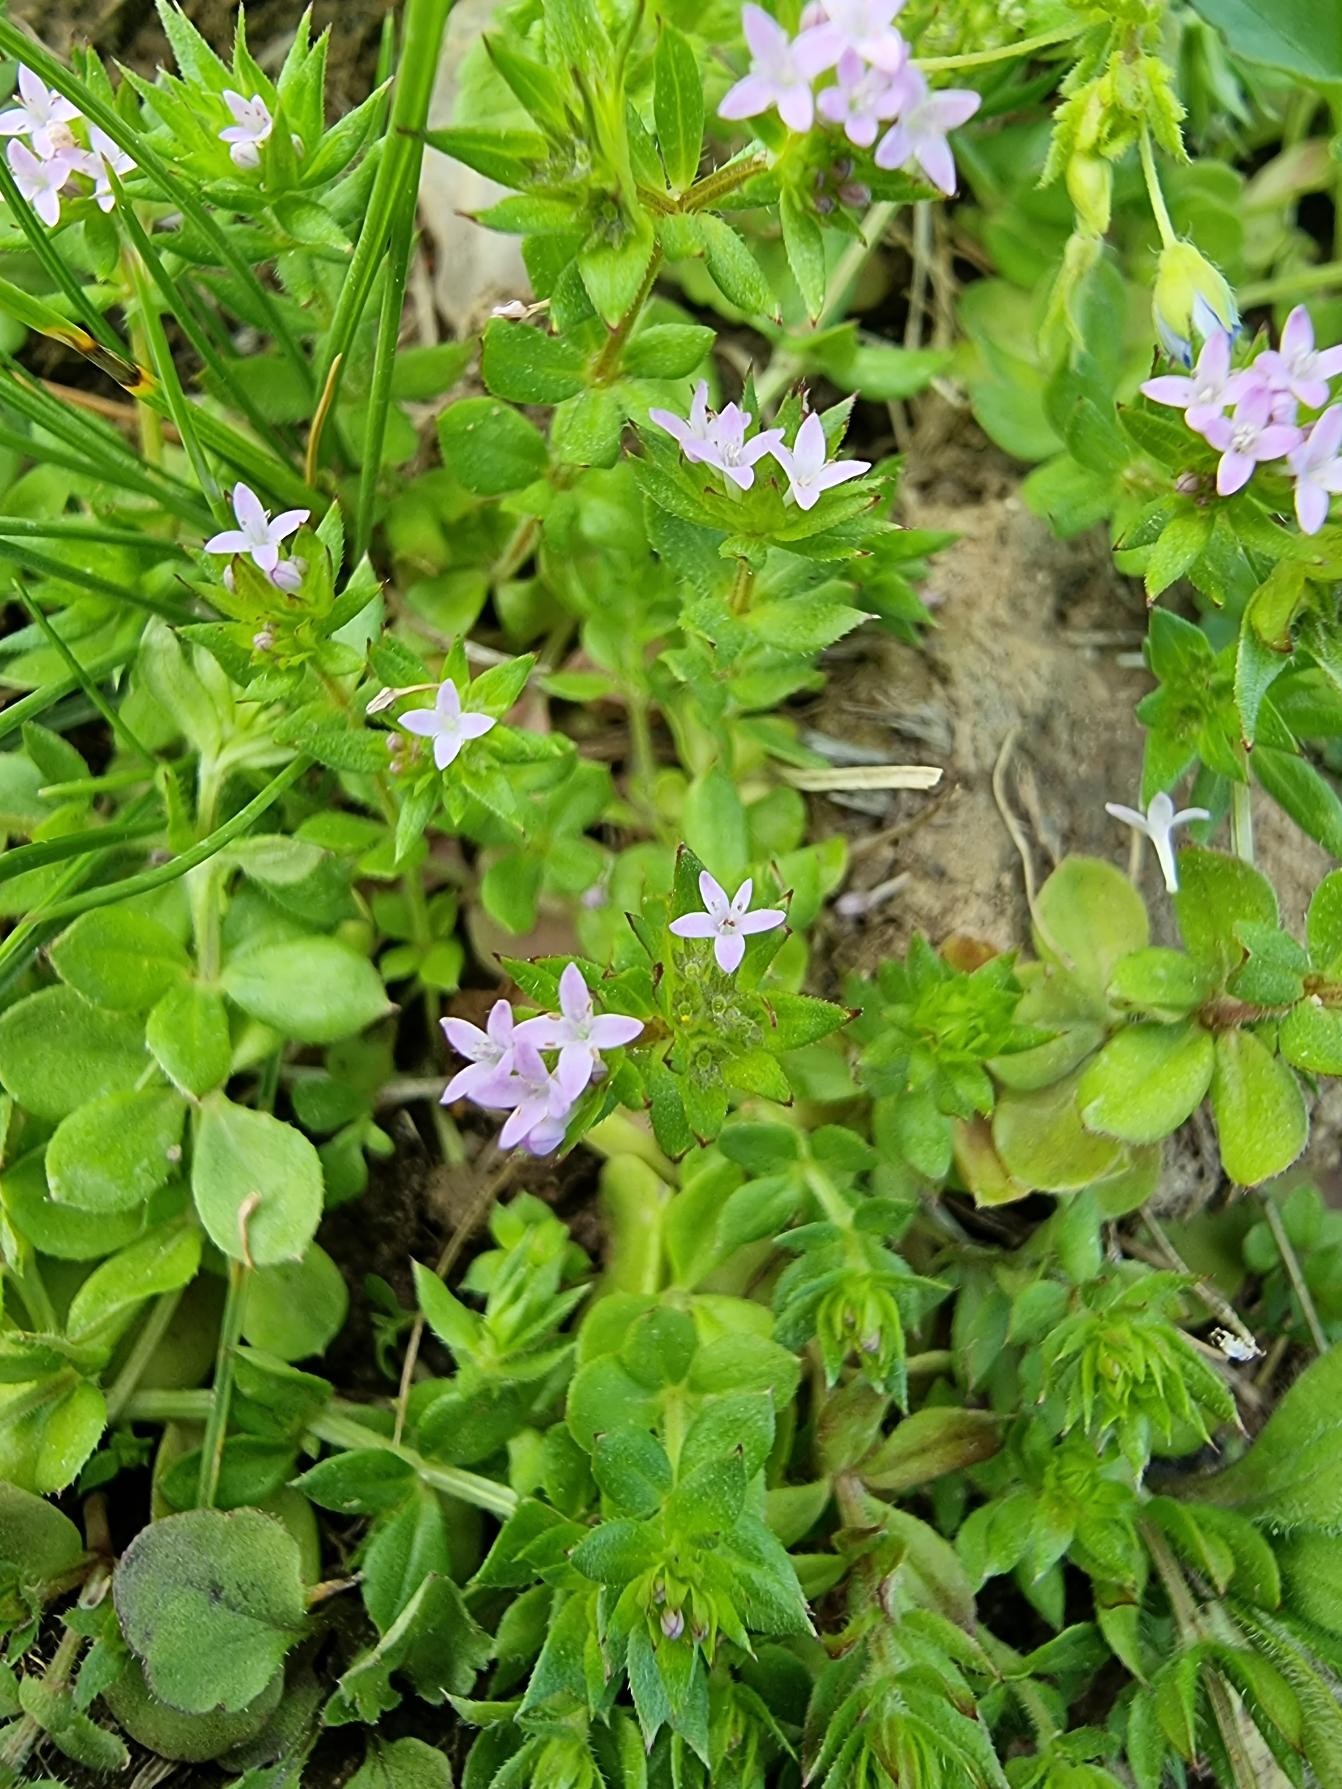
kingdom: Plantae
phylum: Tracheophyta
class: Magnoliopsida
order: Gentianales
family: Rubiaceae
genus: Sherardia
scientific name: Sherardia arvensis
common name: Blåstjerne
